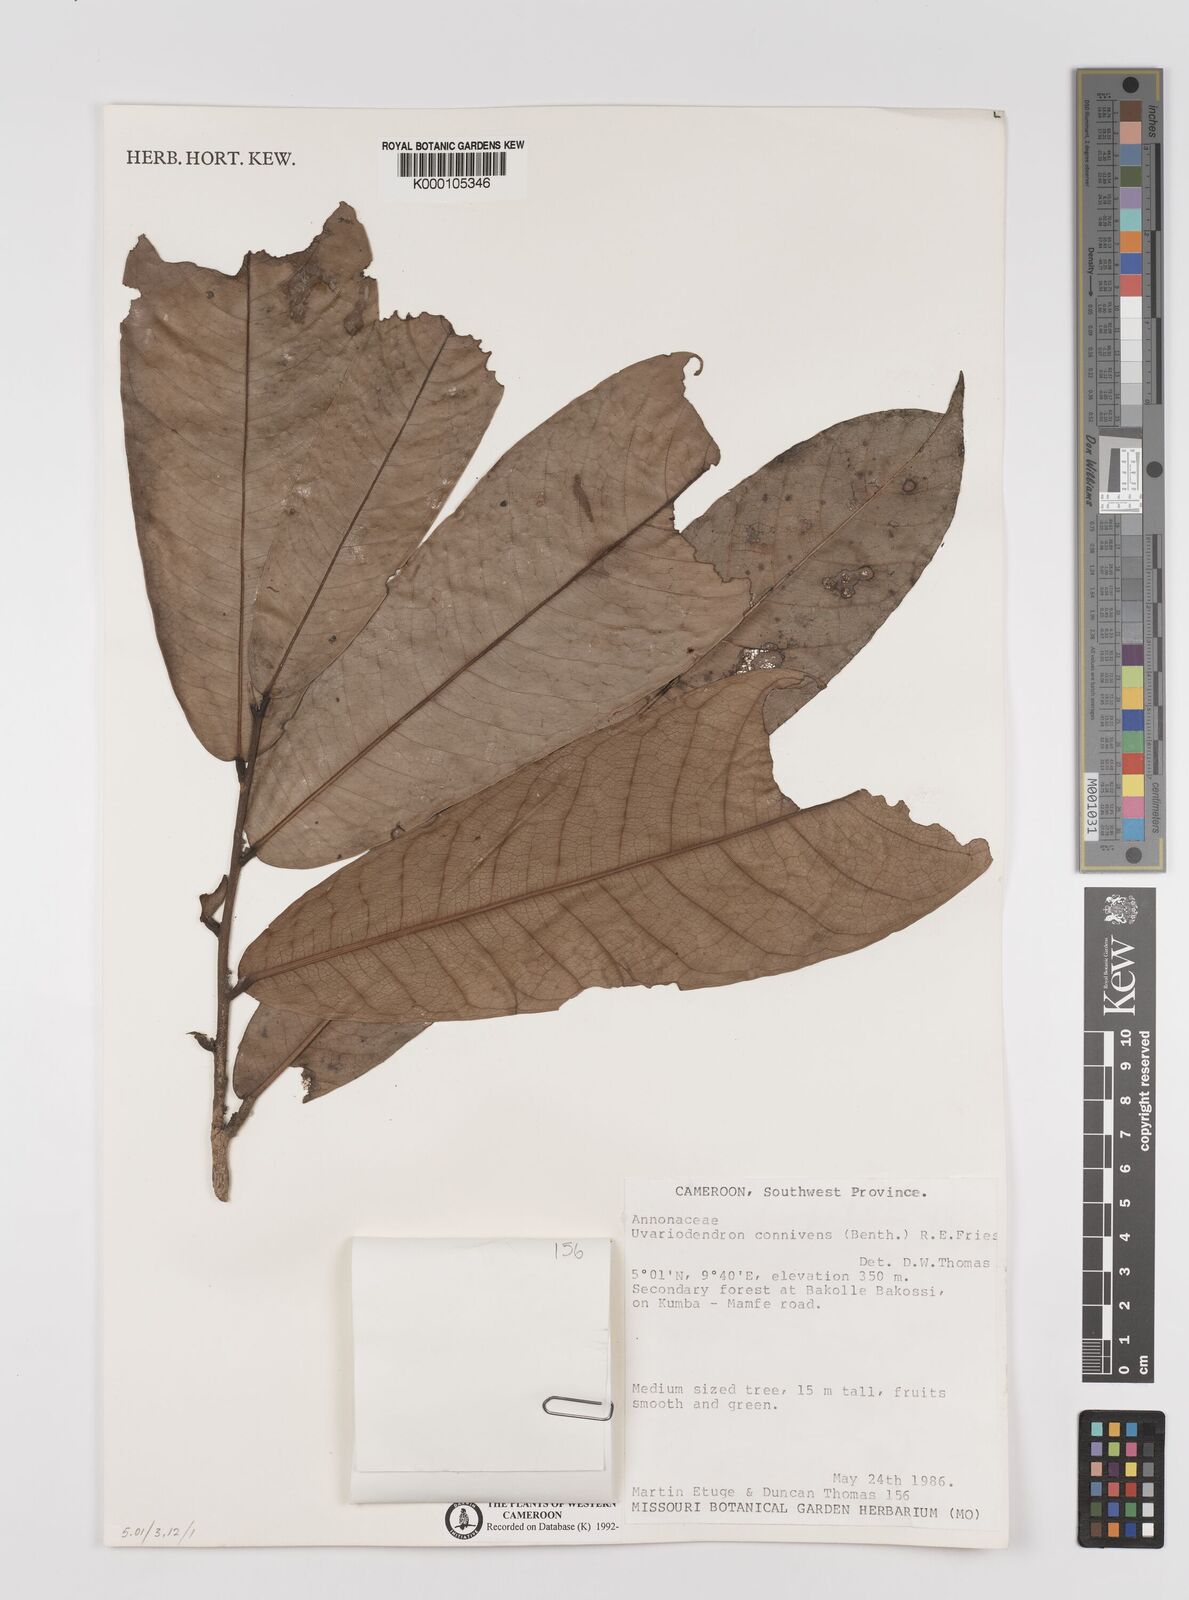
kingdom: Plantae
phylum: Tracheophyta
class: Magnoliopsida
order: Magnoliales
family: Annonaceae
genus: Uvariodendron
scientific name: Uvariodendron connivens
